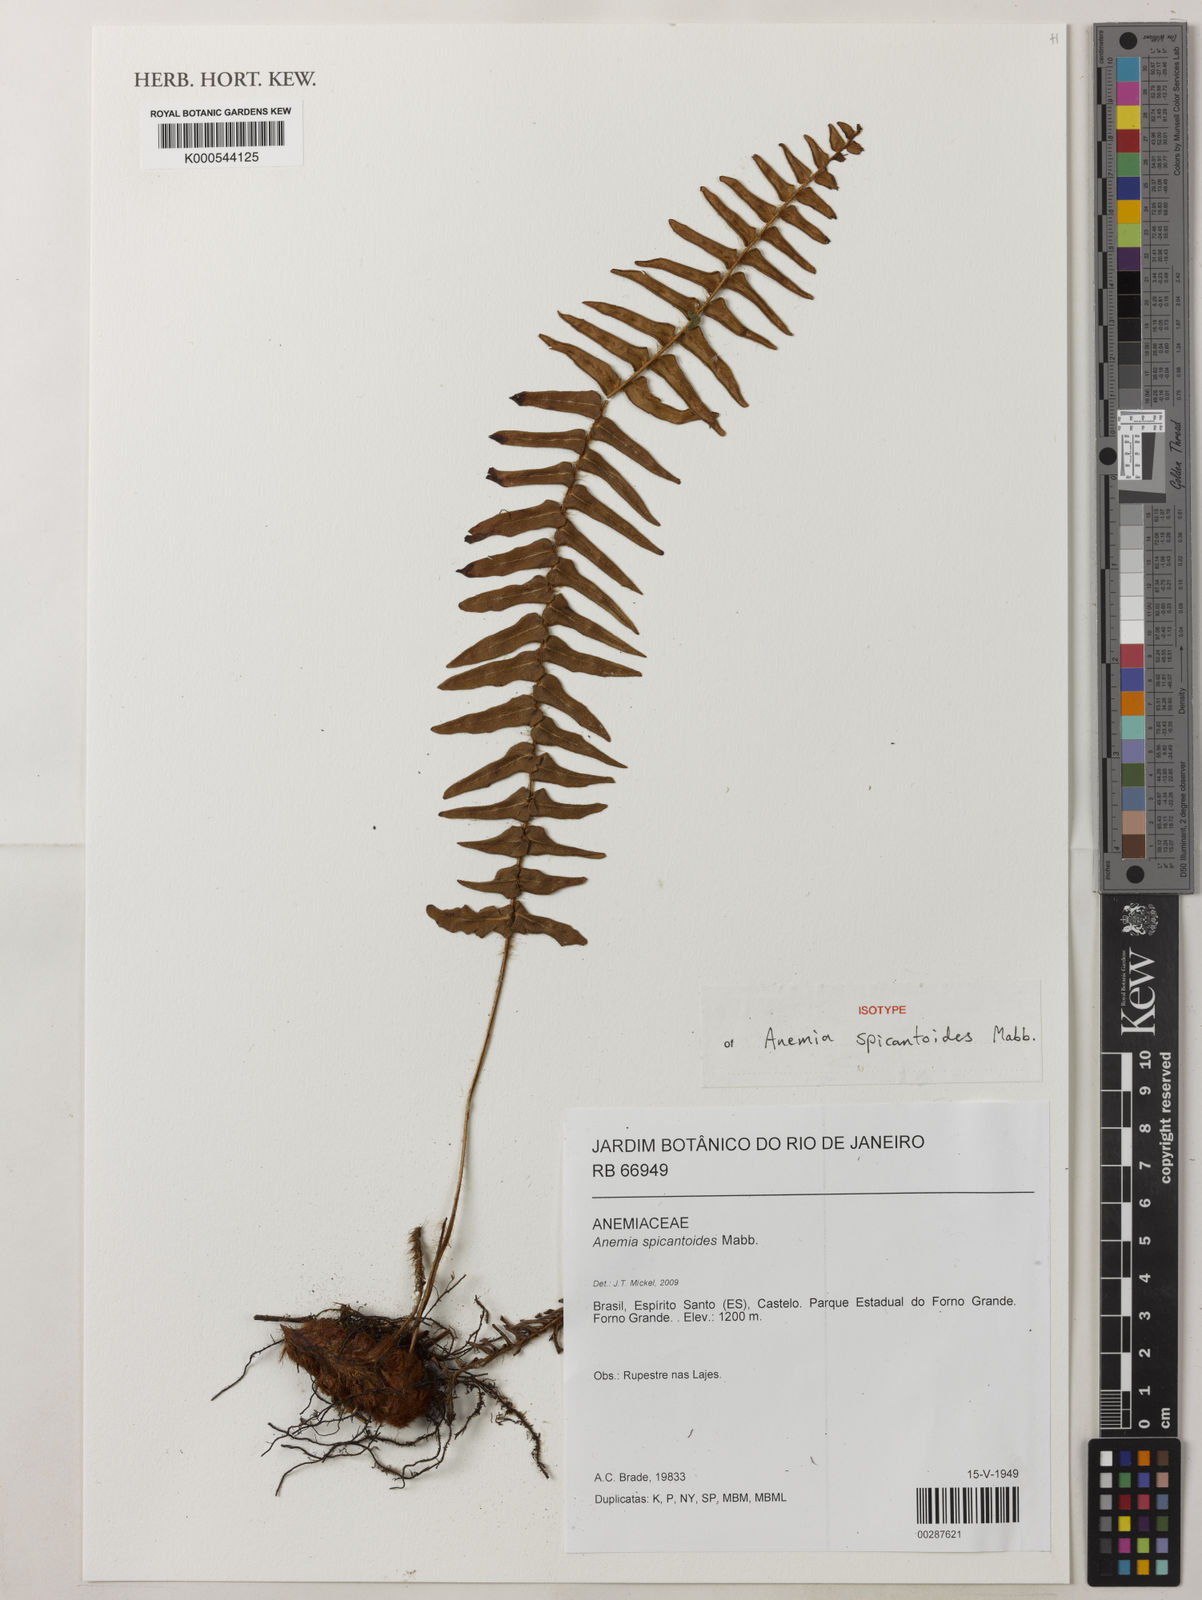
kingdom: Plantae
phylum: Tracheophyta
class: Polypodiopsida
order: Schizaeales
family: Anemiaceae
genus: Anemia
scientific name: Anemia spicantoides
